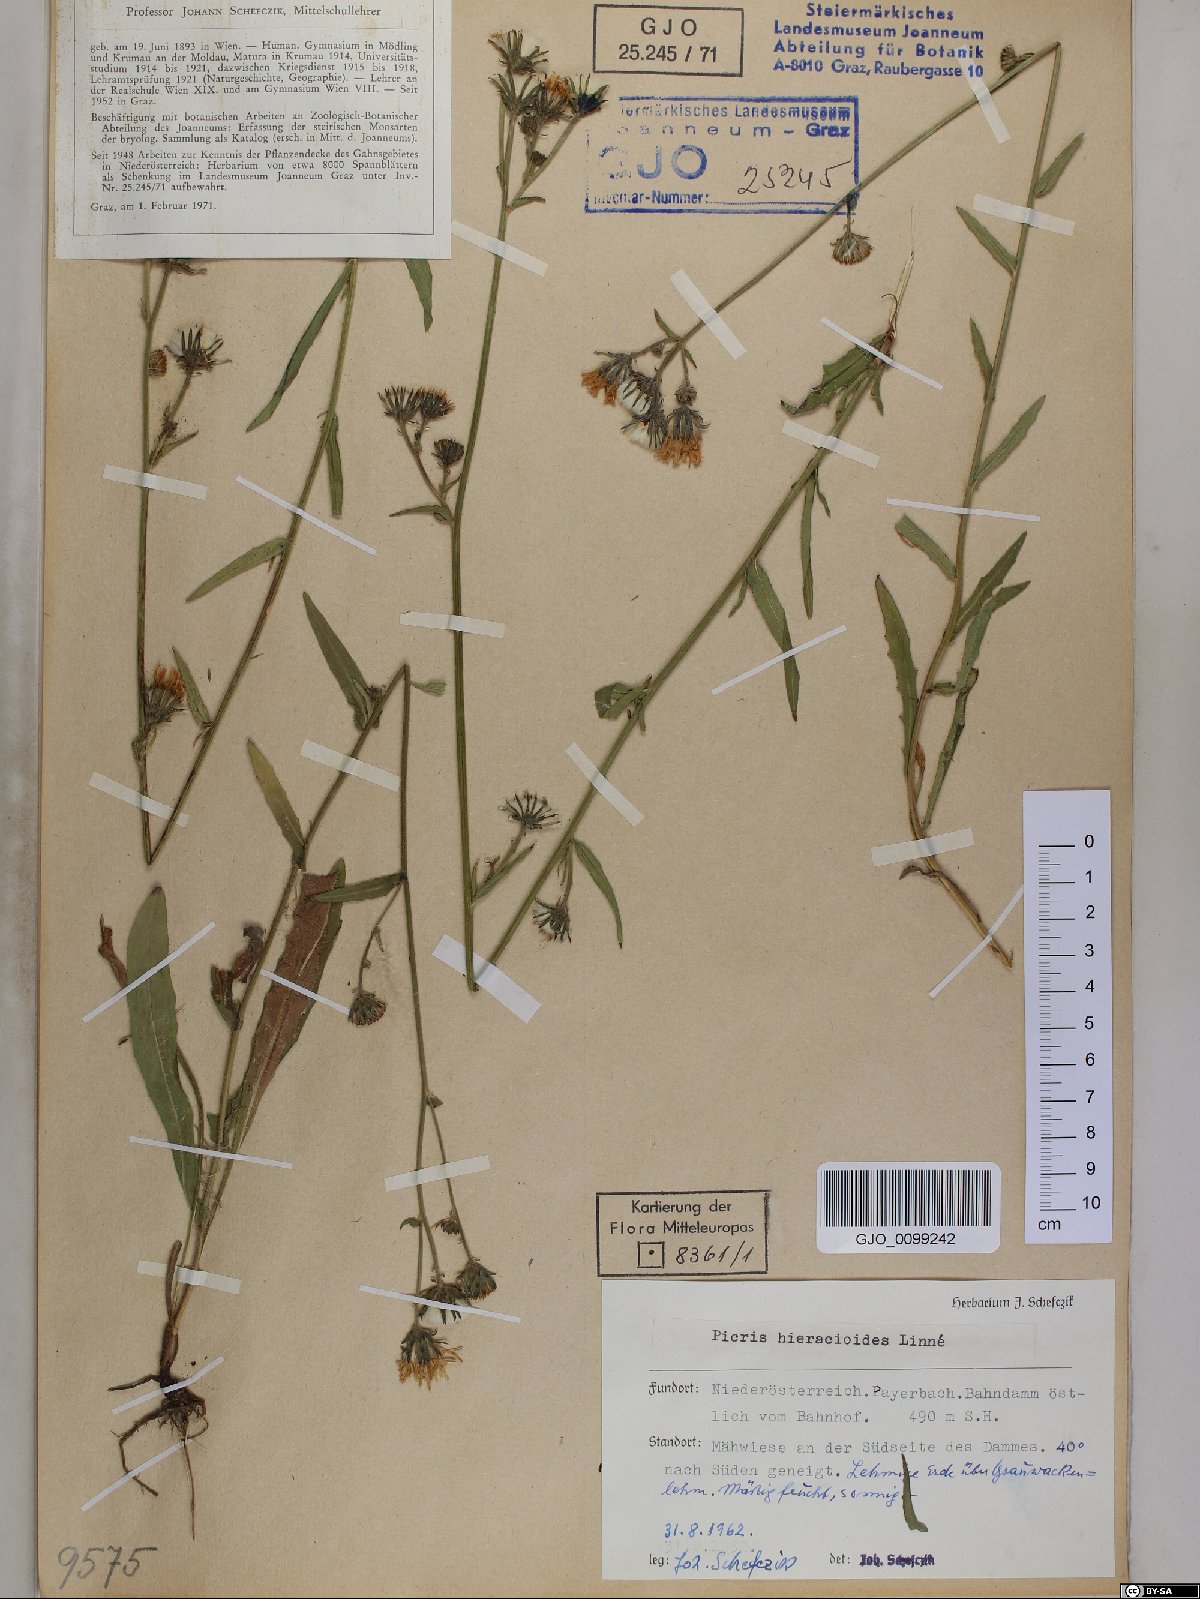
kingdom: Plantae
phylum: Tracheophyta
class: Magnoliopsida
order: Asterales
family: Asteraceae
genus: Picris
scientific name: Picris hieracioides
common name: Hawkweed oxtongue
